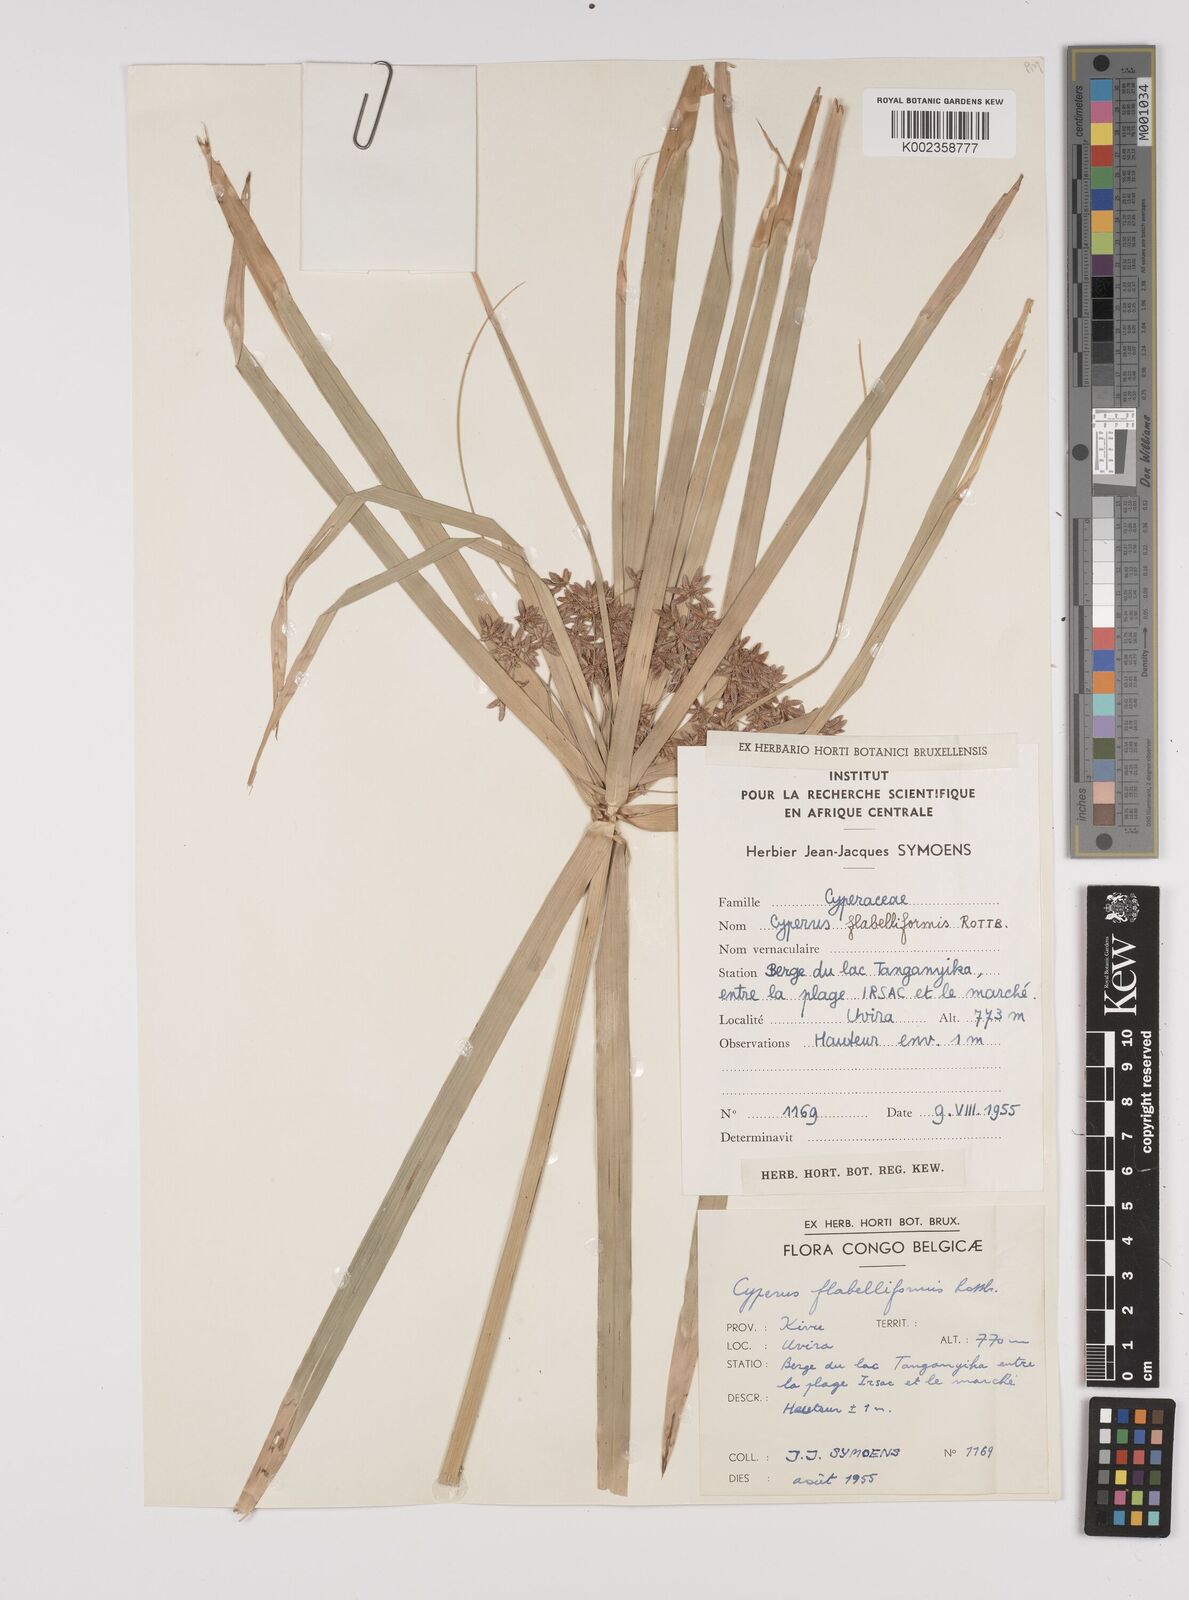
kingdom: Plantae
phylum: Tracheophyta
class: Liliopsida
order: Poales
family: Cyperaceae
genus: Cyperus
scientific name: Cyperus alternifolius
